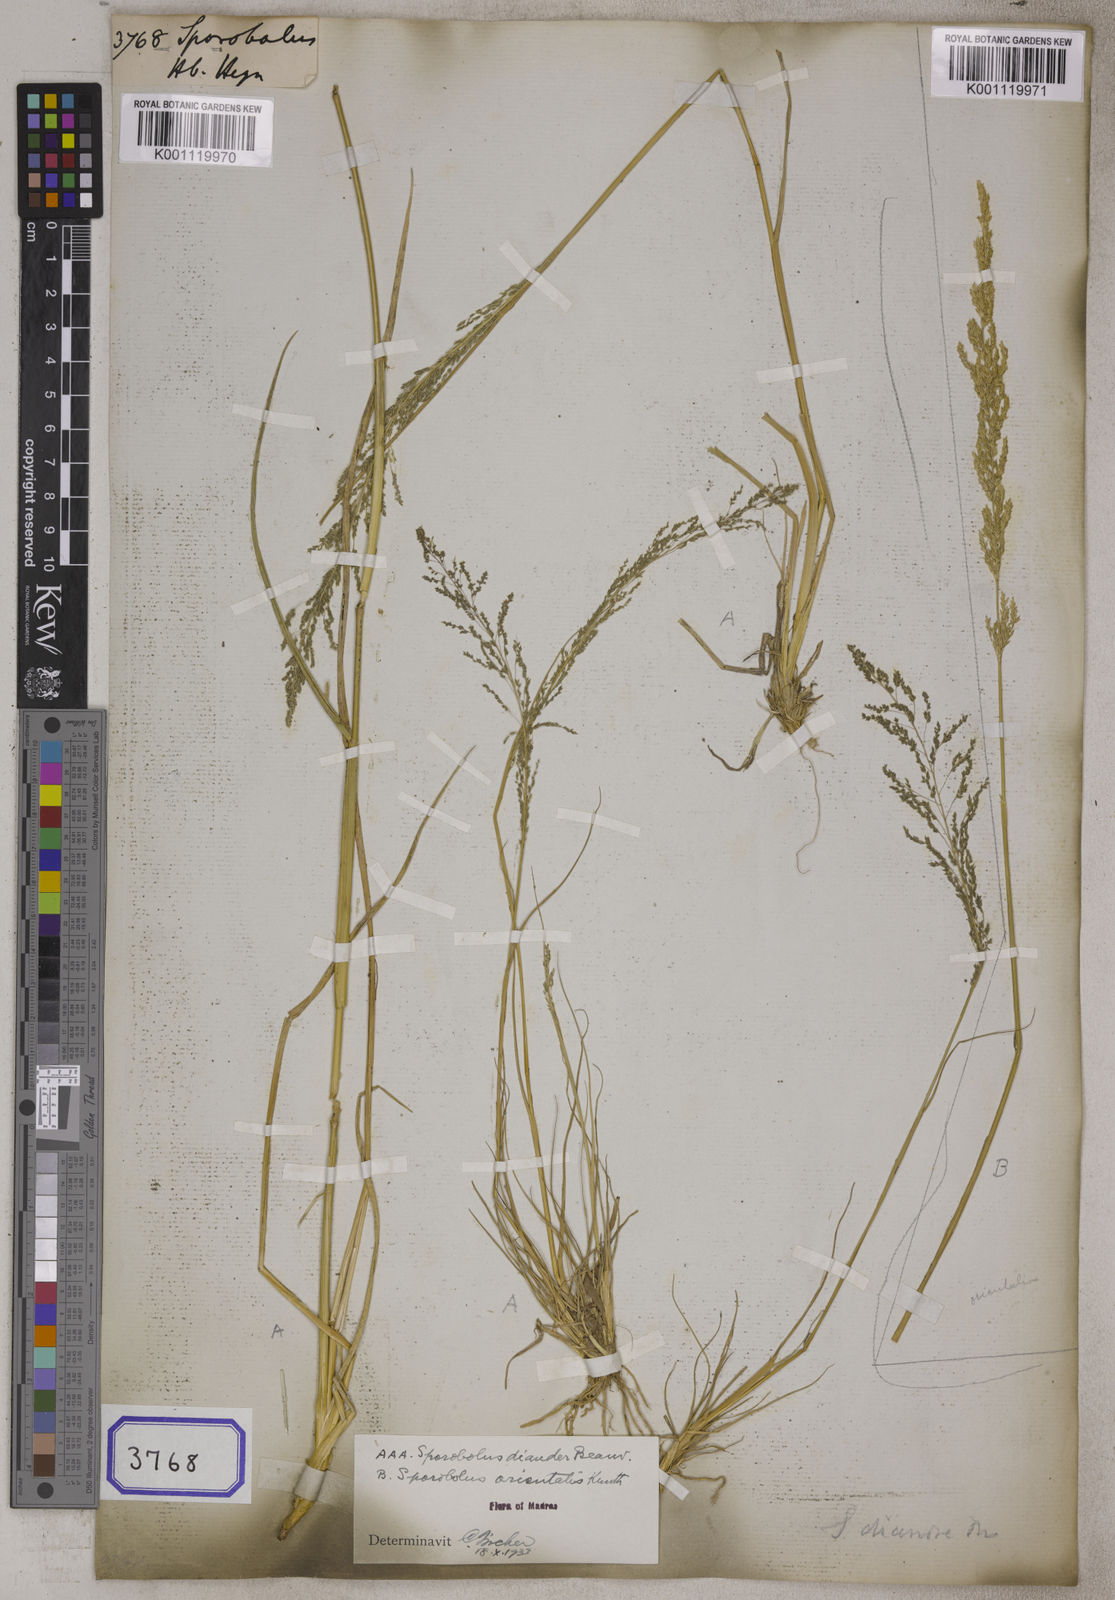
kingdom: Plantae
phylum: Tracheophyta
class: Liliopsida
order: Poales
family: Poaceae
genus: Sporobolus
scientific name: Sporobolus
